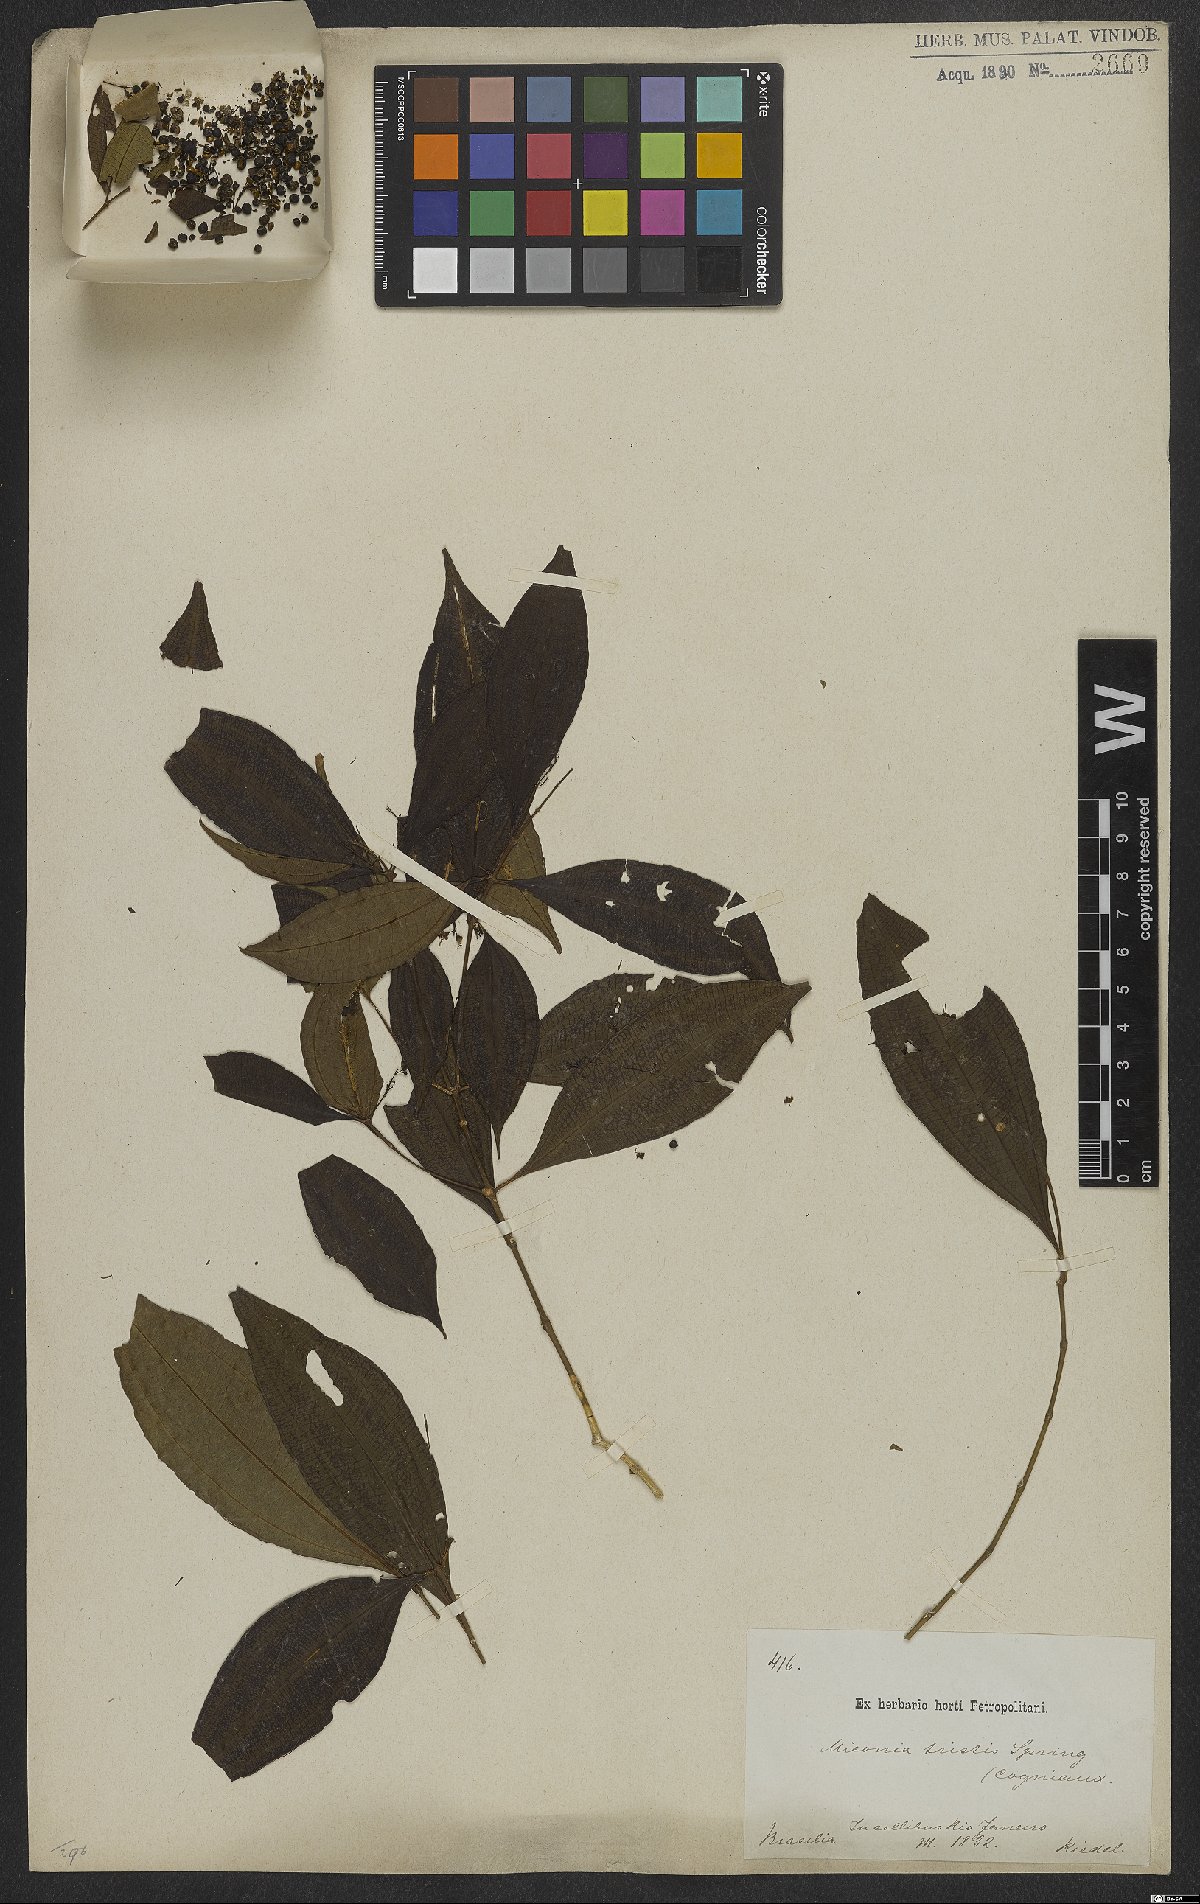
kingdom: Plantae
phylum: Tracheophyta
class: Magnoliopsida
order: Myrtales
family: Melastomataceae
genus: Miconia
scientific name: Miconia tristis
